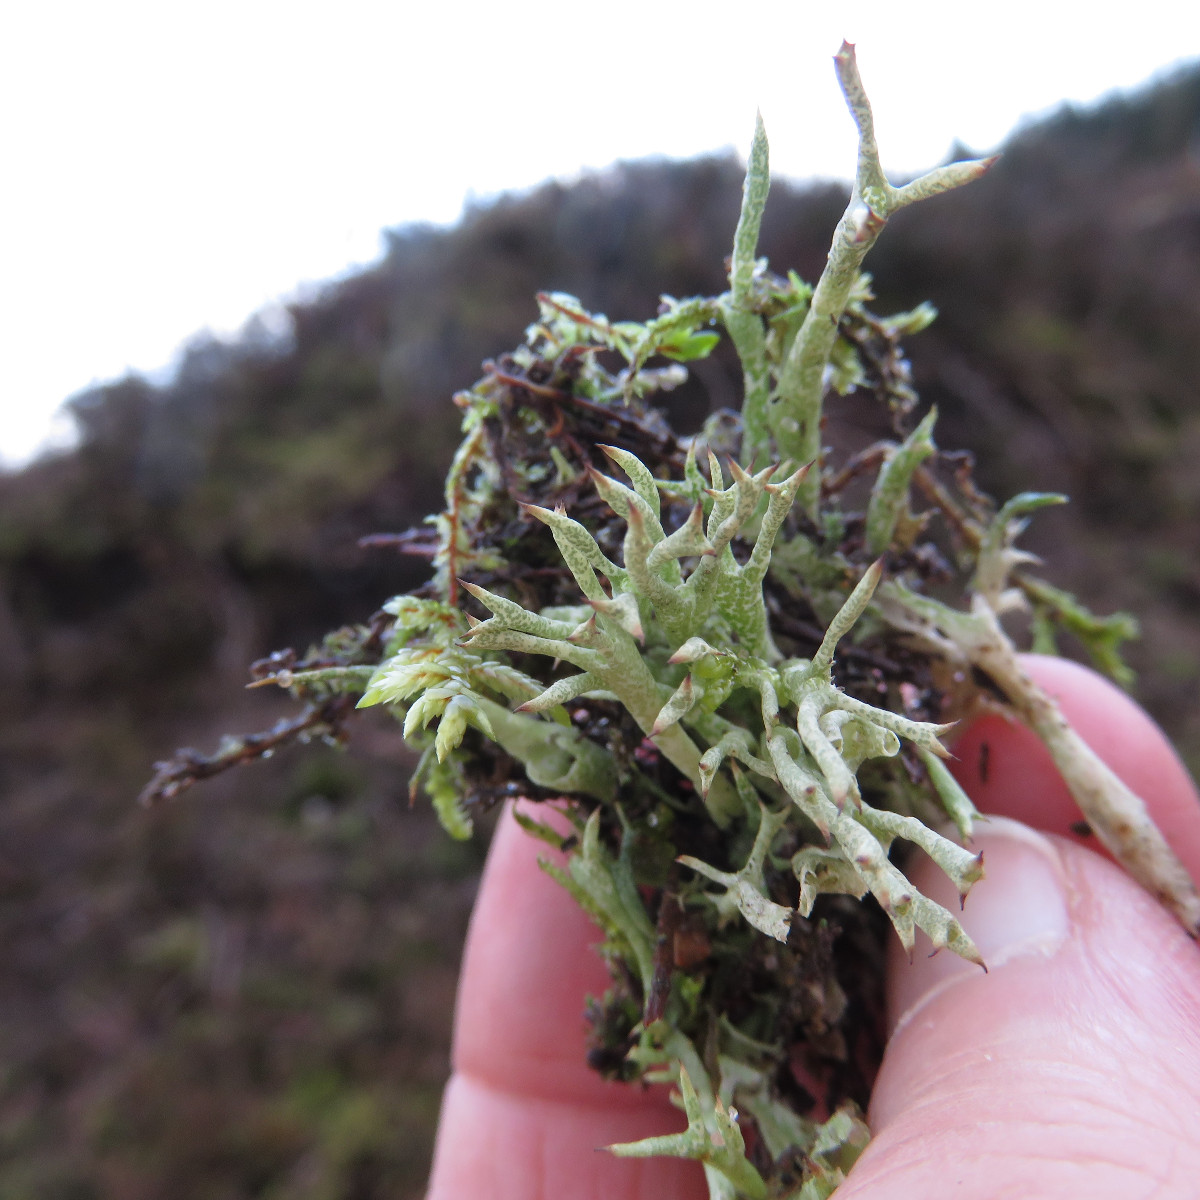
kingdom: Fungi
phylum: Ascomycota
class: Lecanoromycetes
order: Lecanorales
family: Cladoniaceae
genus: Cladonia
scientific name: Cladonia uncialis
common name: pigget bægerlav
